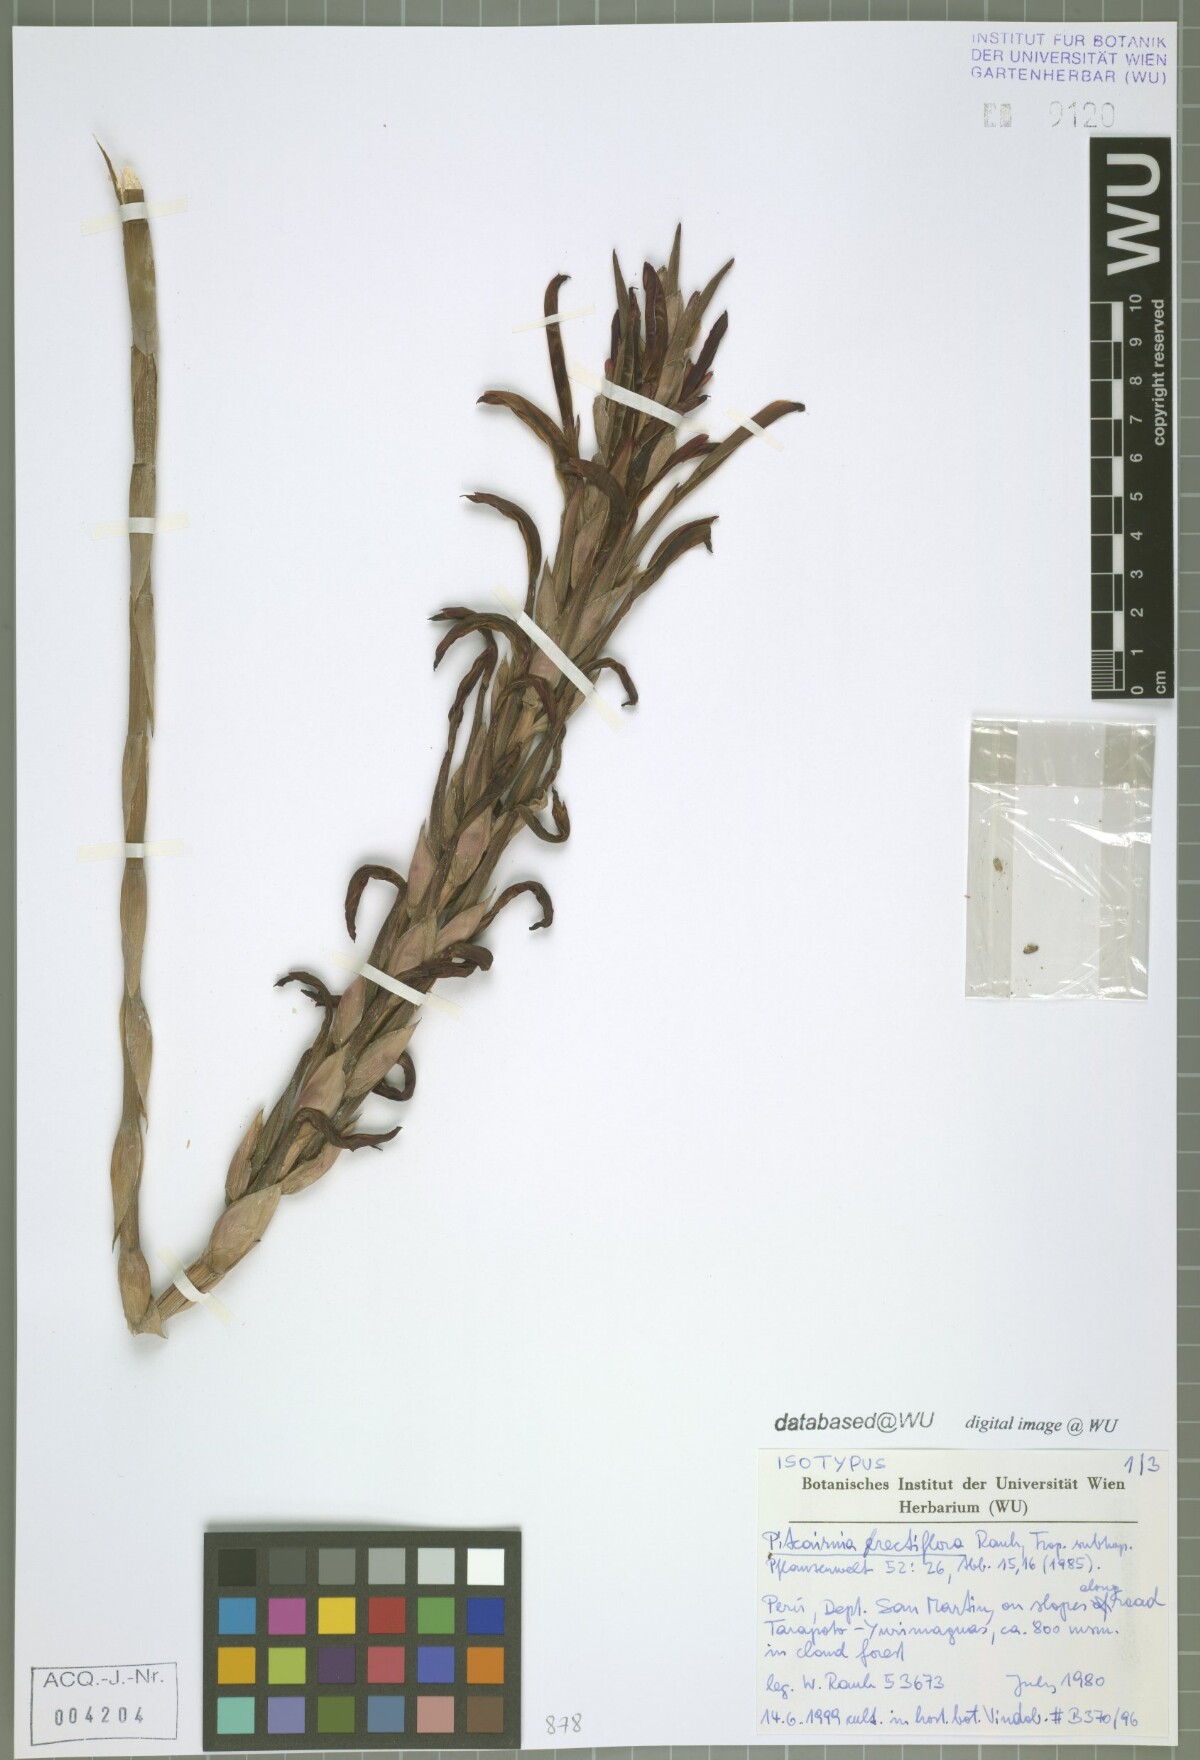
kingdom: Plantae
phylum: Tracheophyta
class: Liliopsida
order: Poales
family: Bromeliaceae
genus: Pitcairnia
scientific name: Pitcairnia rectiflora
